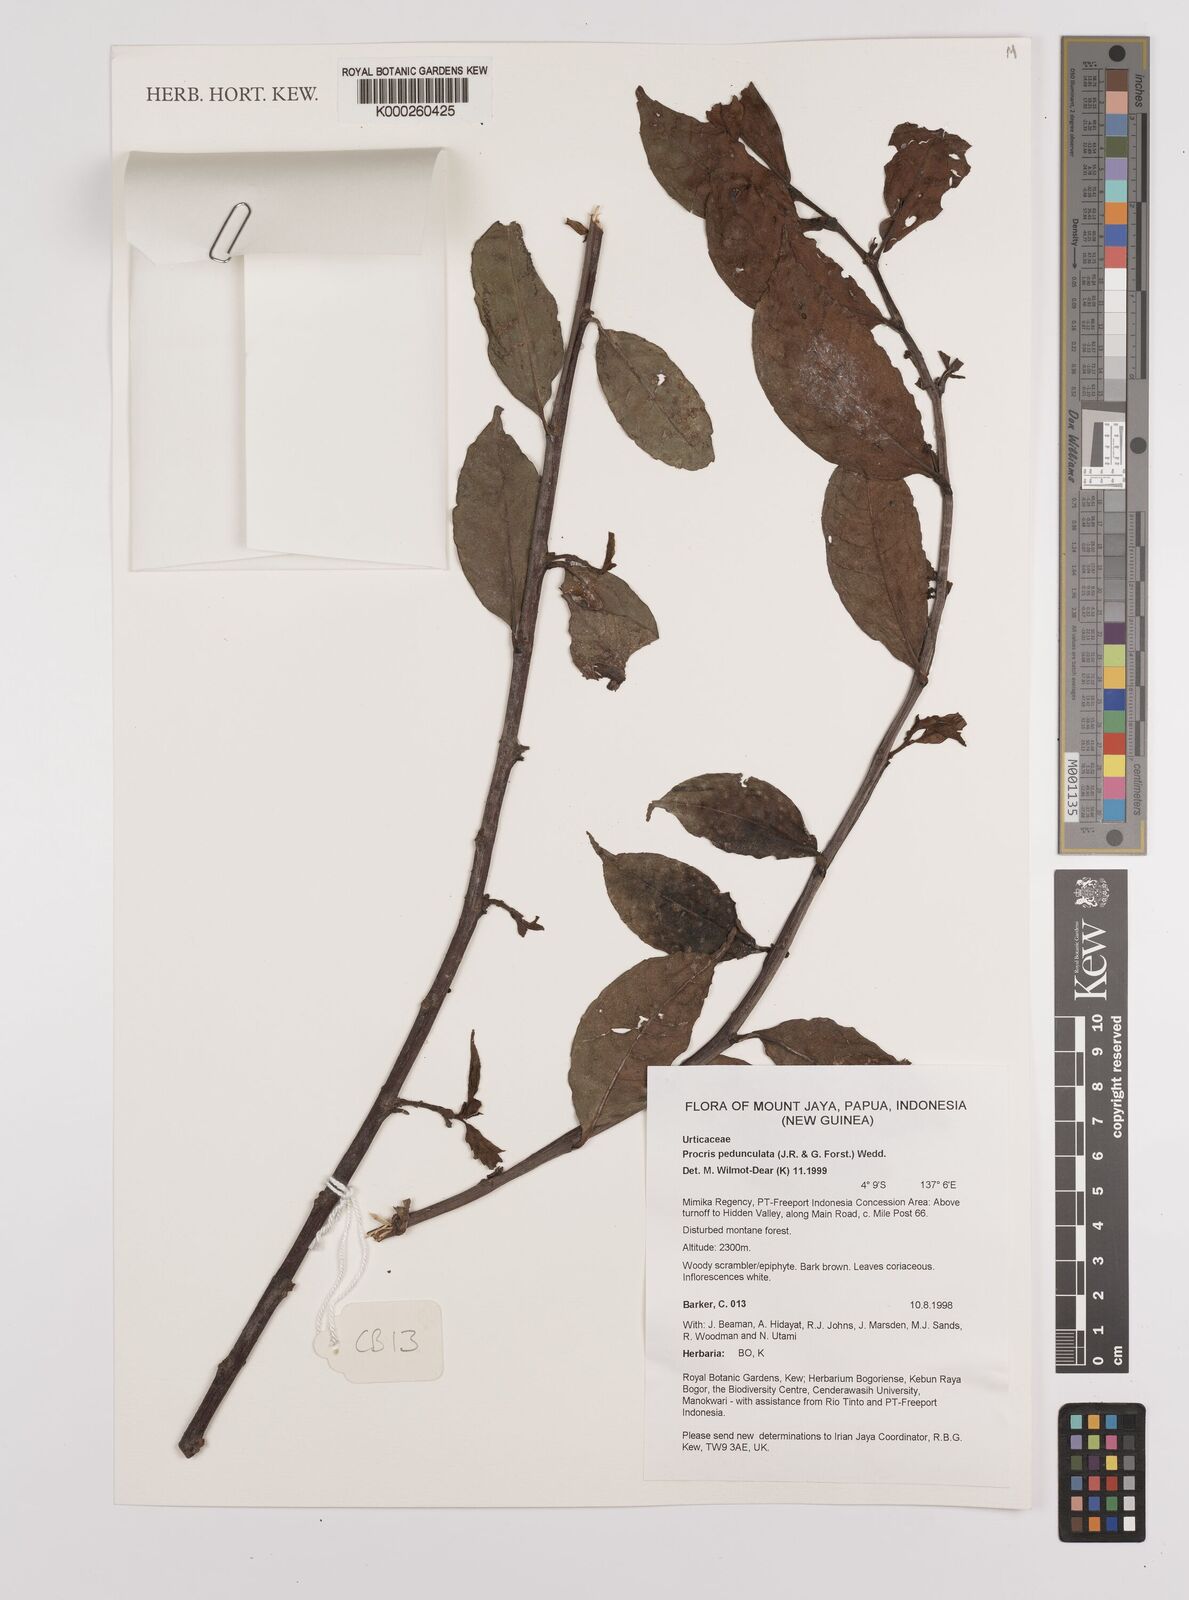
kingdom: Plantae
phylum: Tracheophyta
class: Magnoliopsida
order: Rosales
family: Urticaceae
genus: Procris
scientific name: Procris pedunculata
